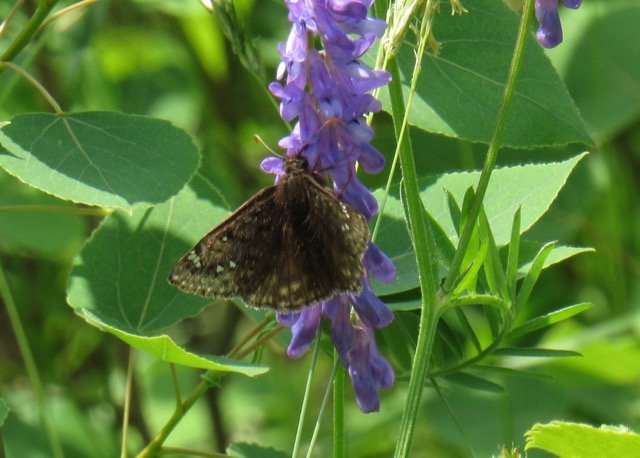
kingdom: Animalia
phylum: Arthropoda
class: Insecta
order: Lepidoptera
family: Hesperiidae
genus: Gesta
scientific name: Gesta
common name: Juvenal's Duskywing
